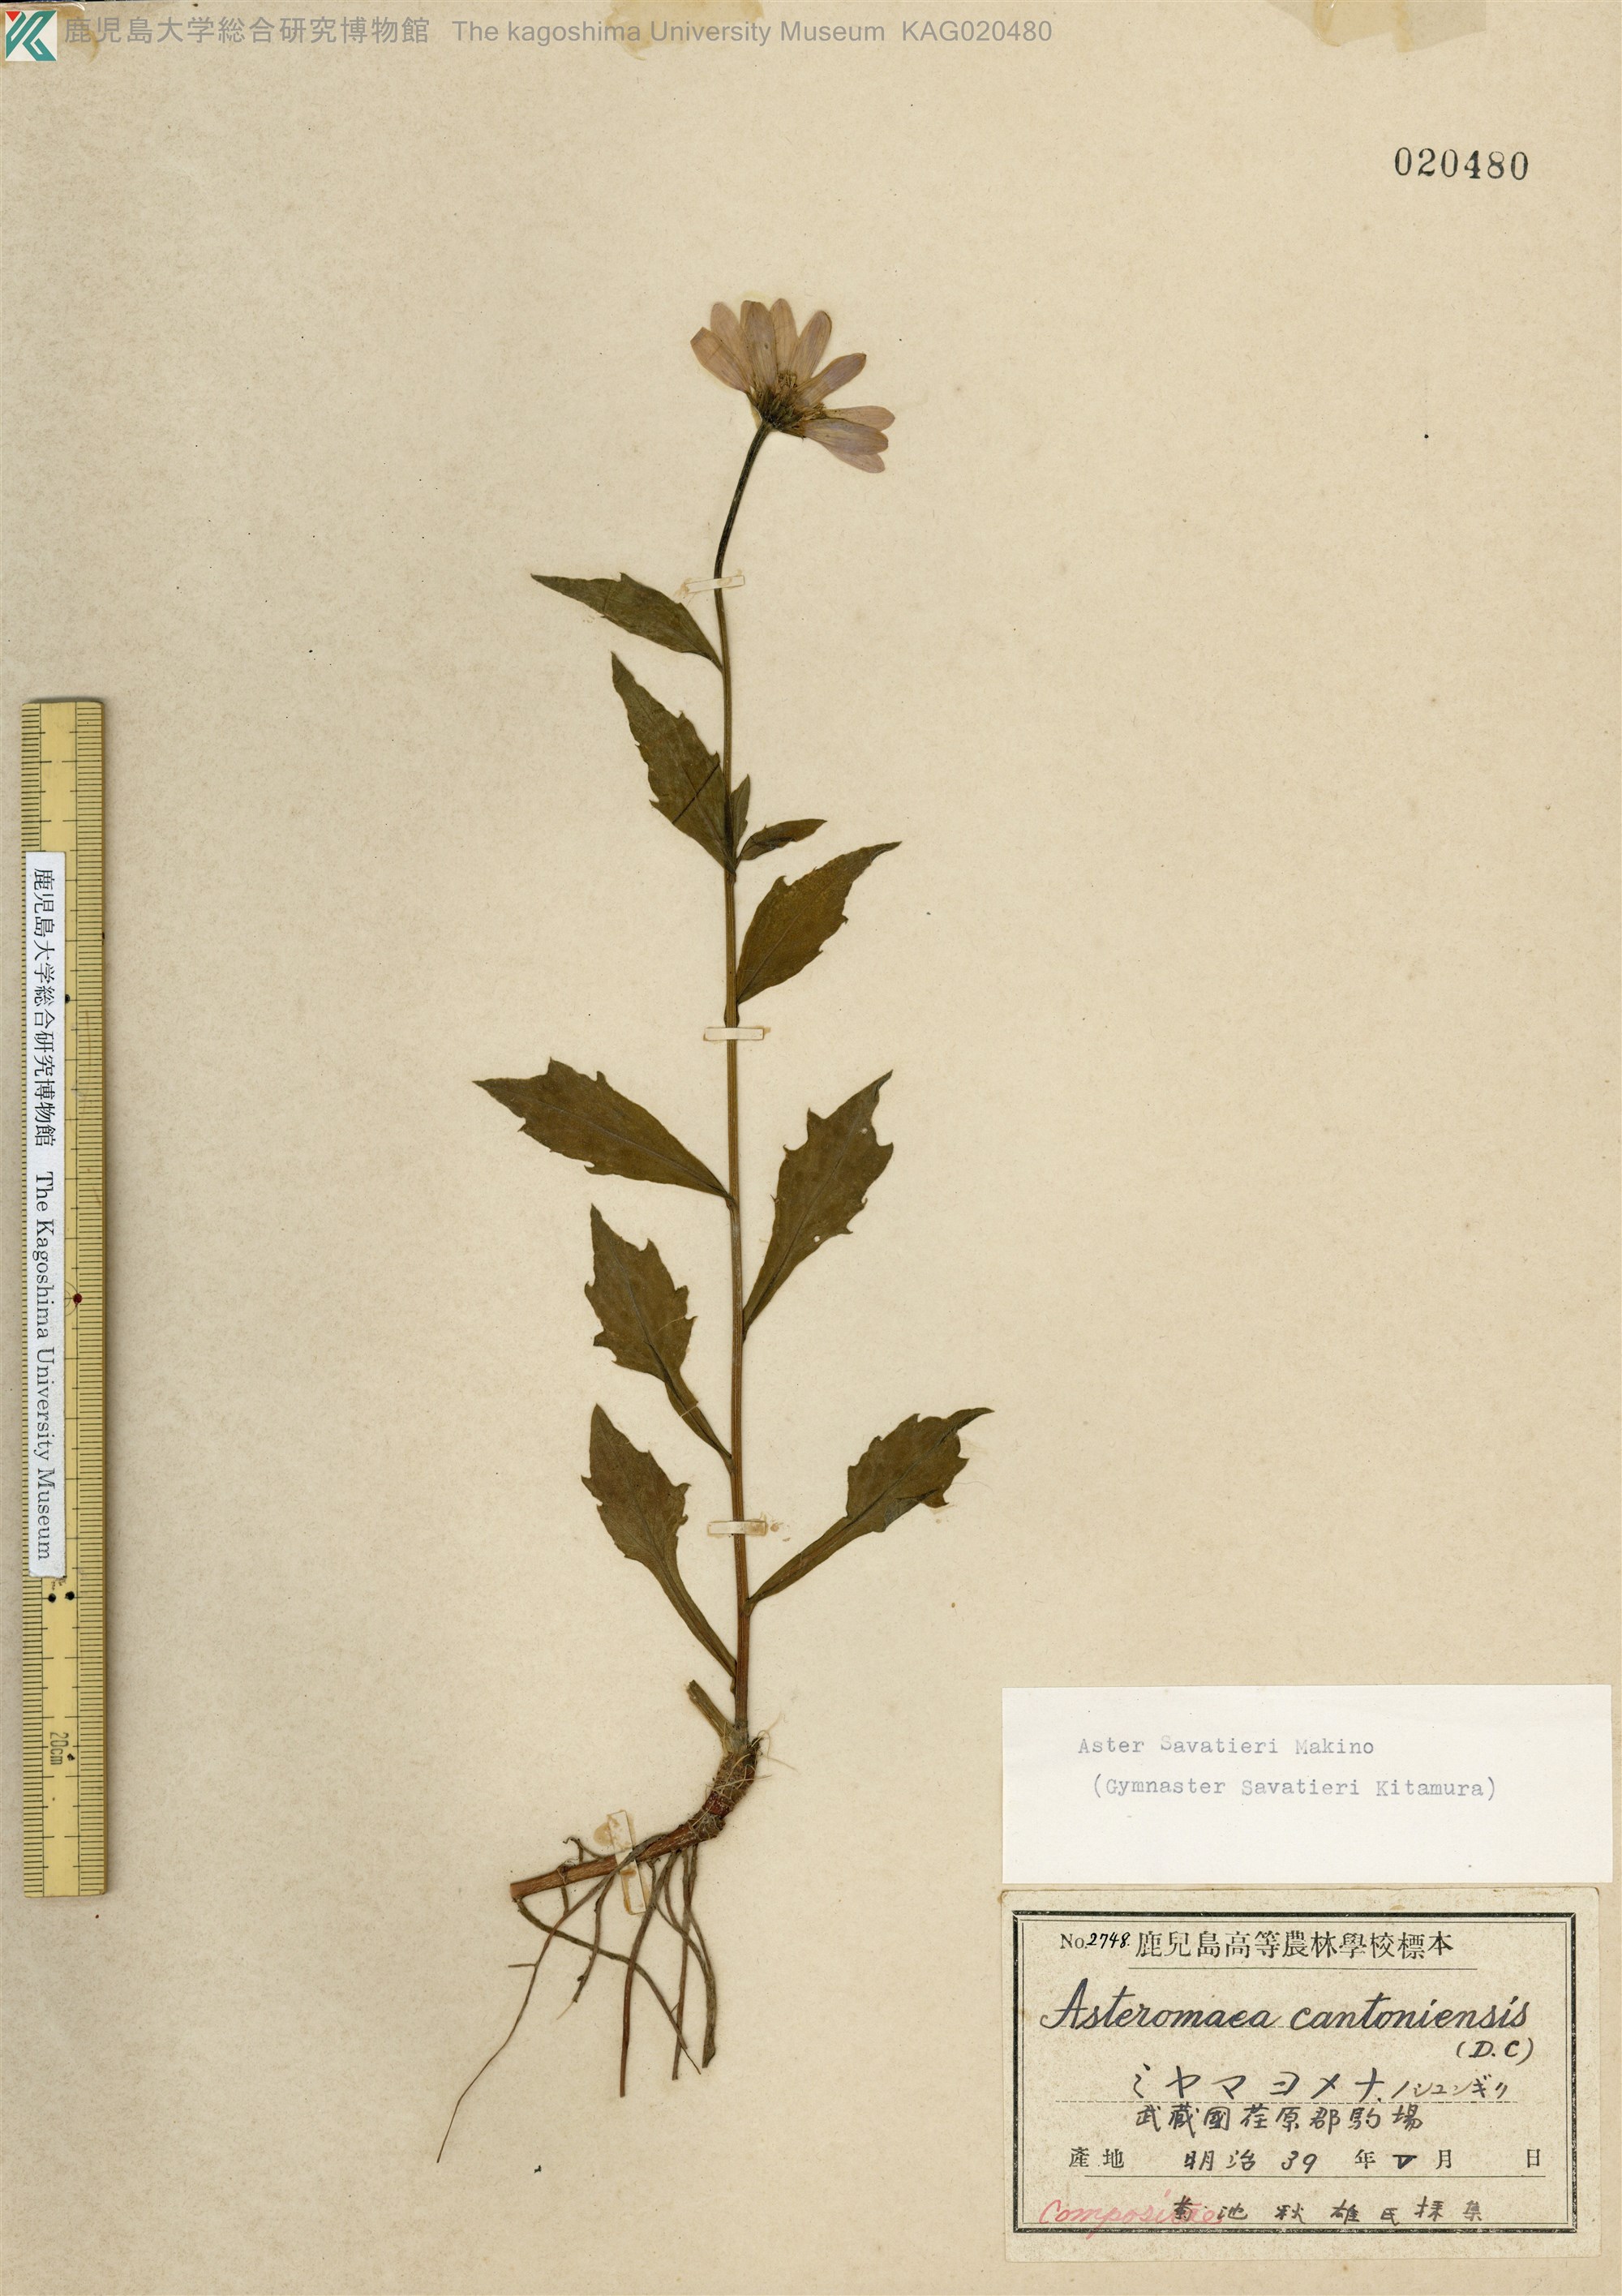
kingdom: Plantae
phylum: Tracheophyta
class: Magnoliopsida
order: Asterales
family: Asteraceae
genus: Miyamayomena
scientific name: Miyamayomena savatieri
